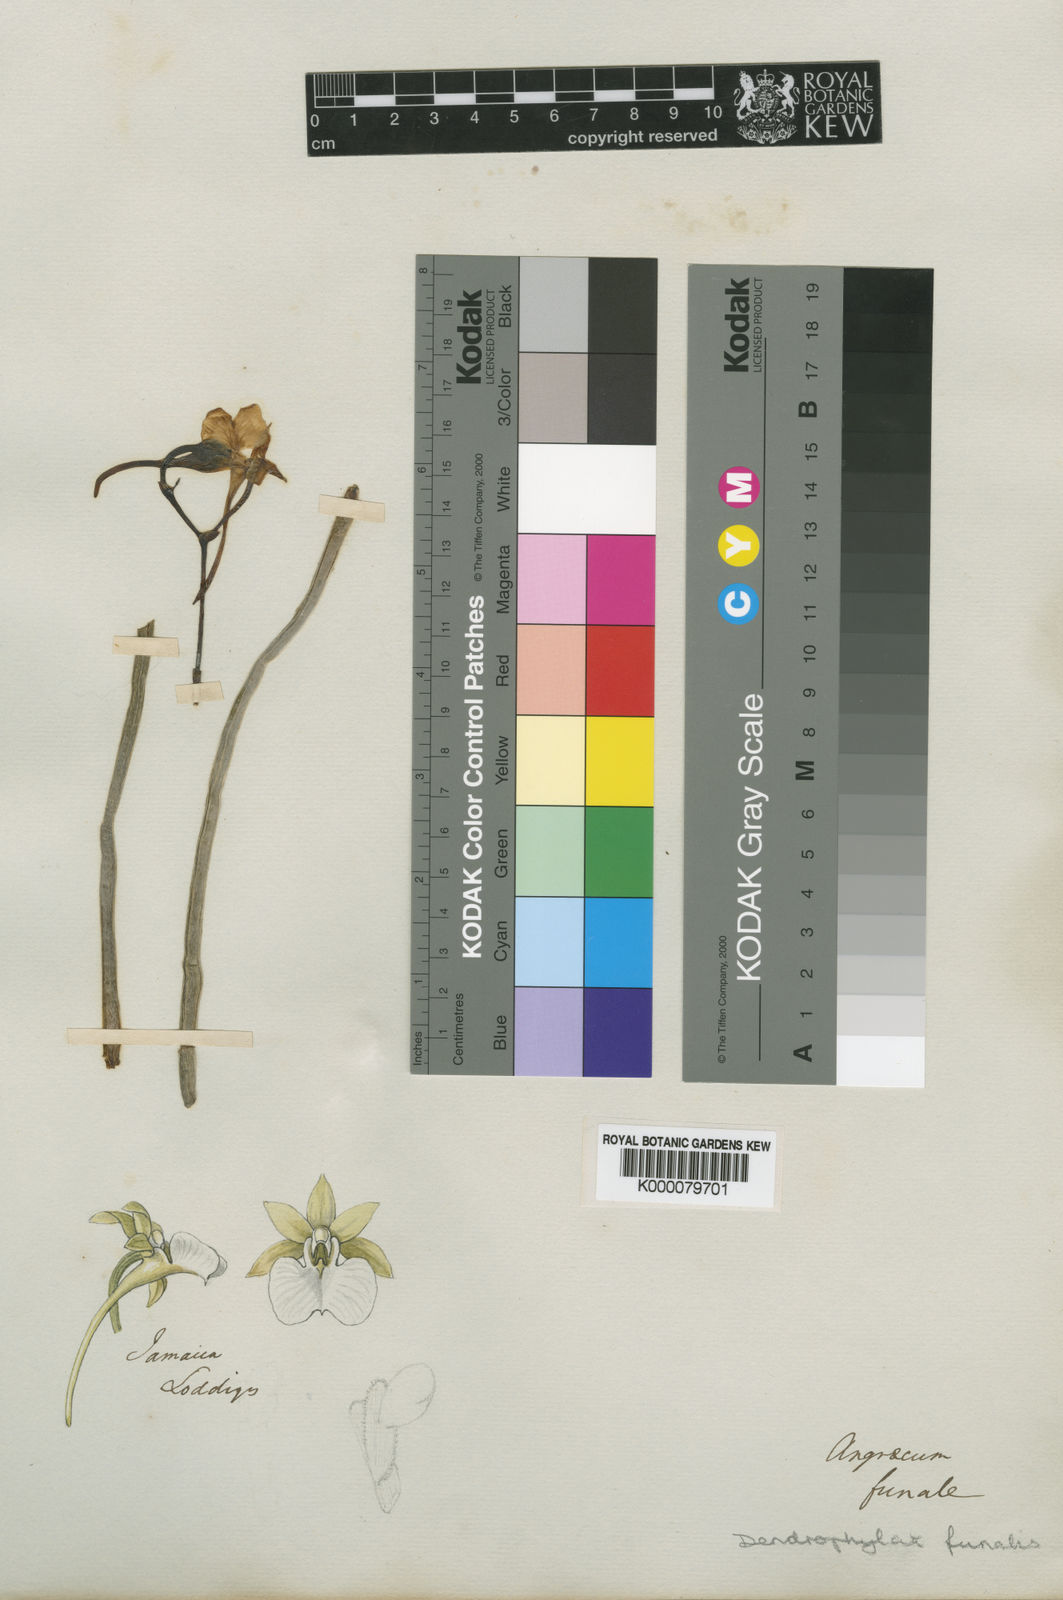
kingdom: Plantae
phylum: Tracheophyta
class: Liliopsida
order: Asparagales
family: Orchidaceae
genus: Dendrophylax
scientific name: Dendrophylax funalis
